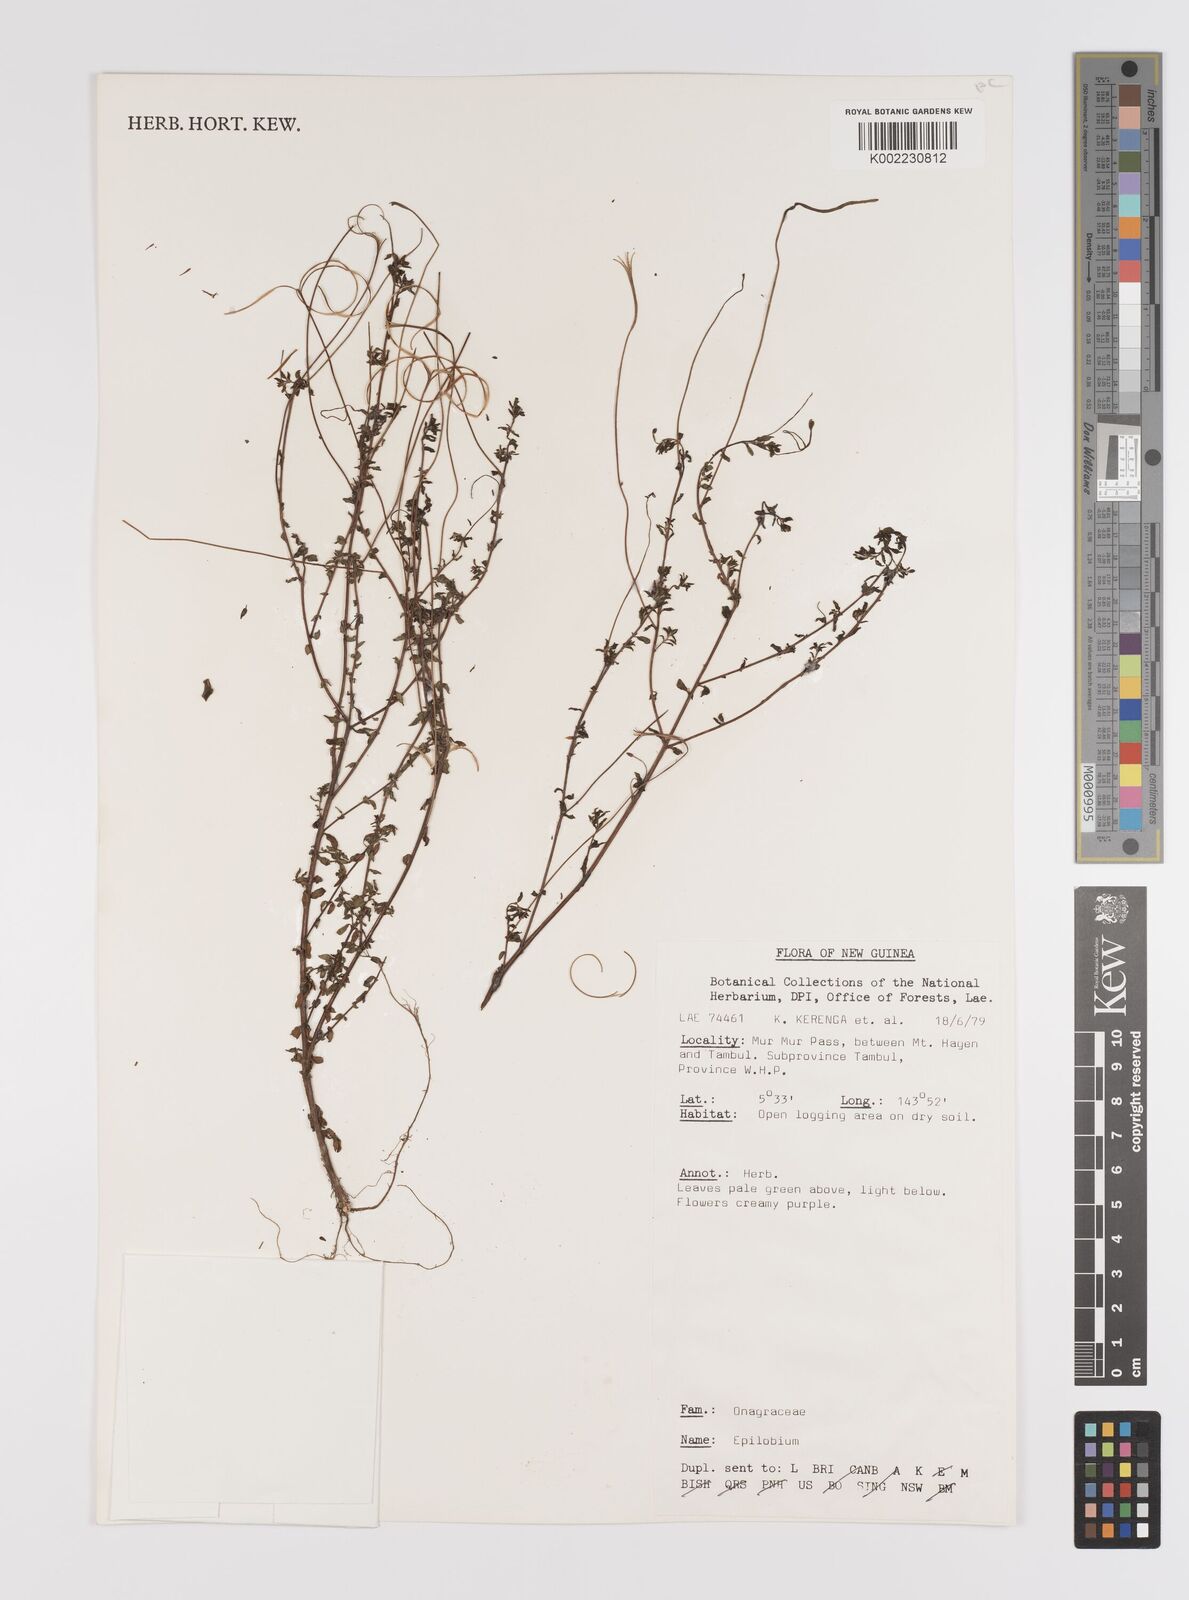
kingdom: Plantae
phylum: Tracheophyta
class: Magnoliopsida
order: Myrtales
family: Onagraceae
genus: Epilobium
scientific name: Epilobium
